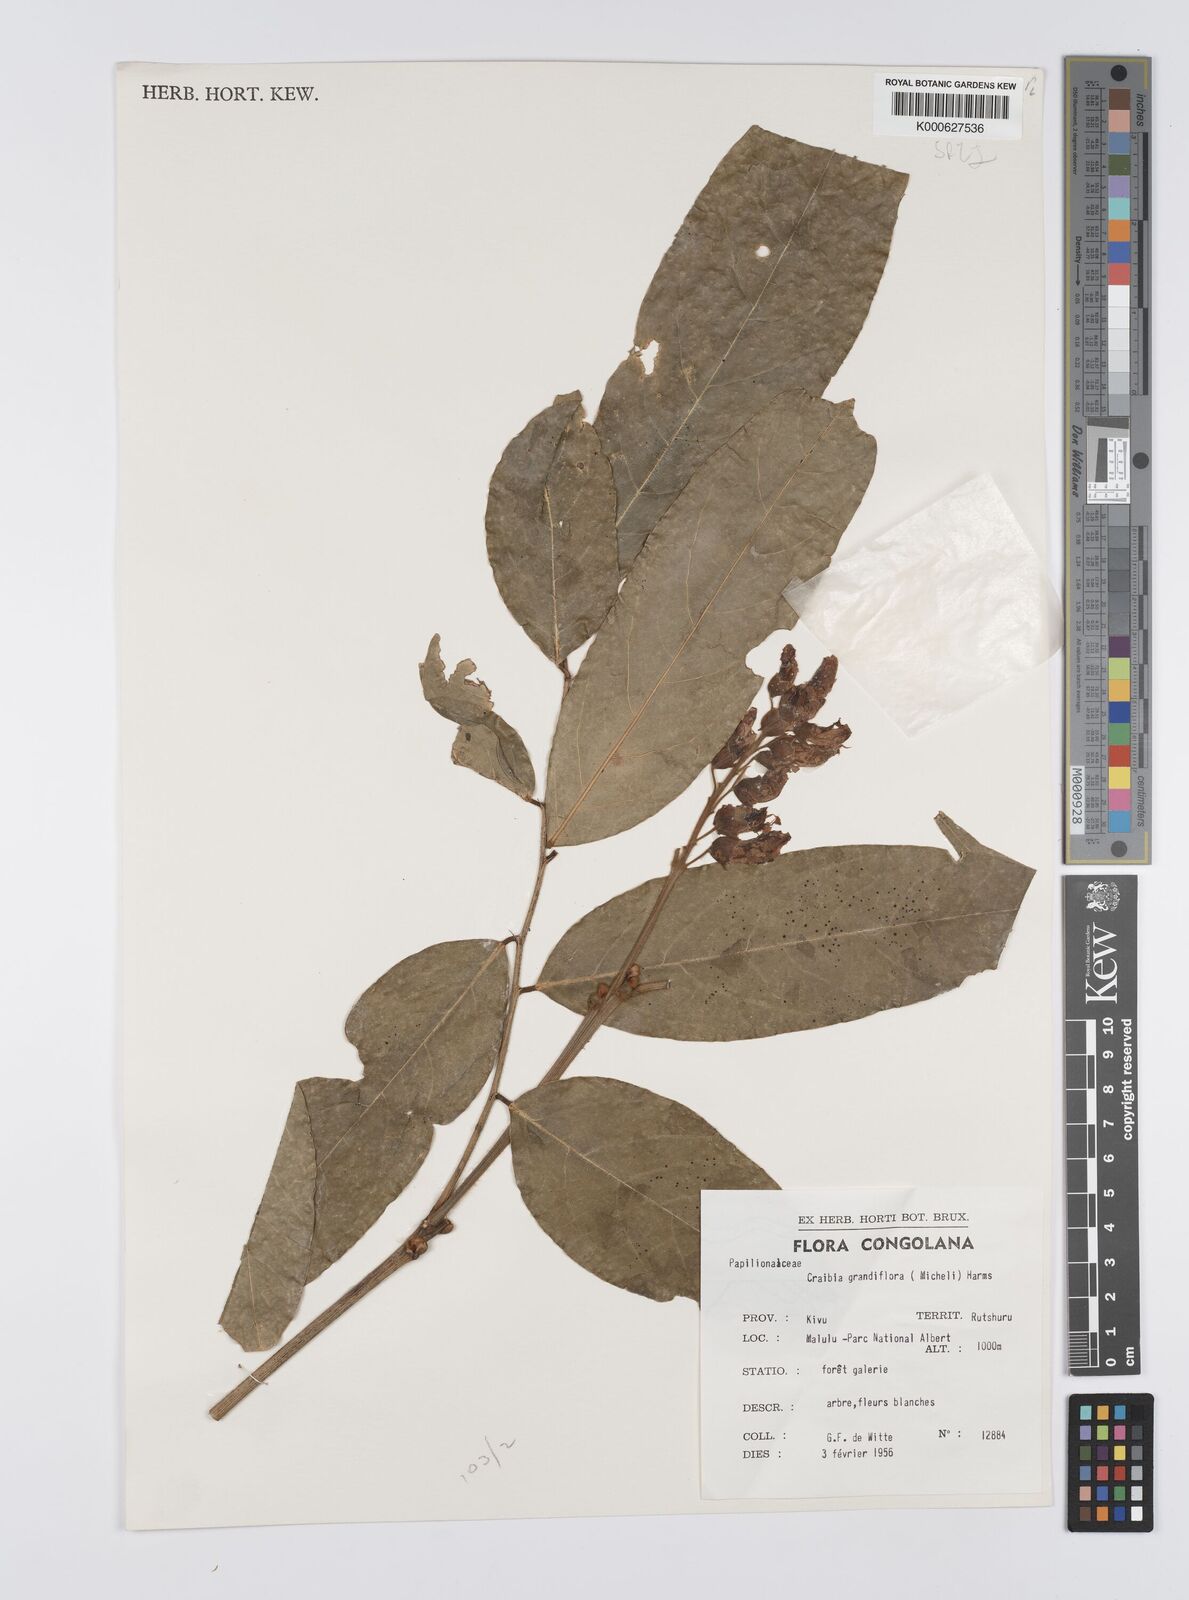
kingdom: Plantae
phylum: Tracheophyta
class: Magnoliopsida
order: Fabales
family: Fabaceae
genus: Craibia
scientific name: Craibia grandiflora
